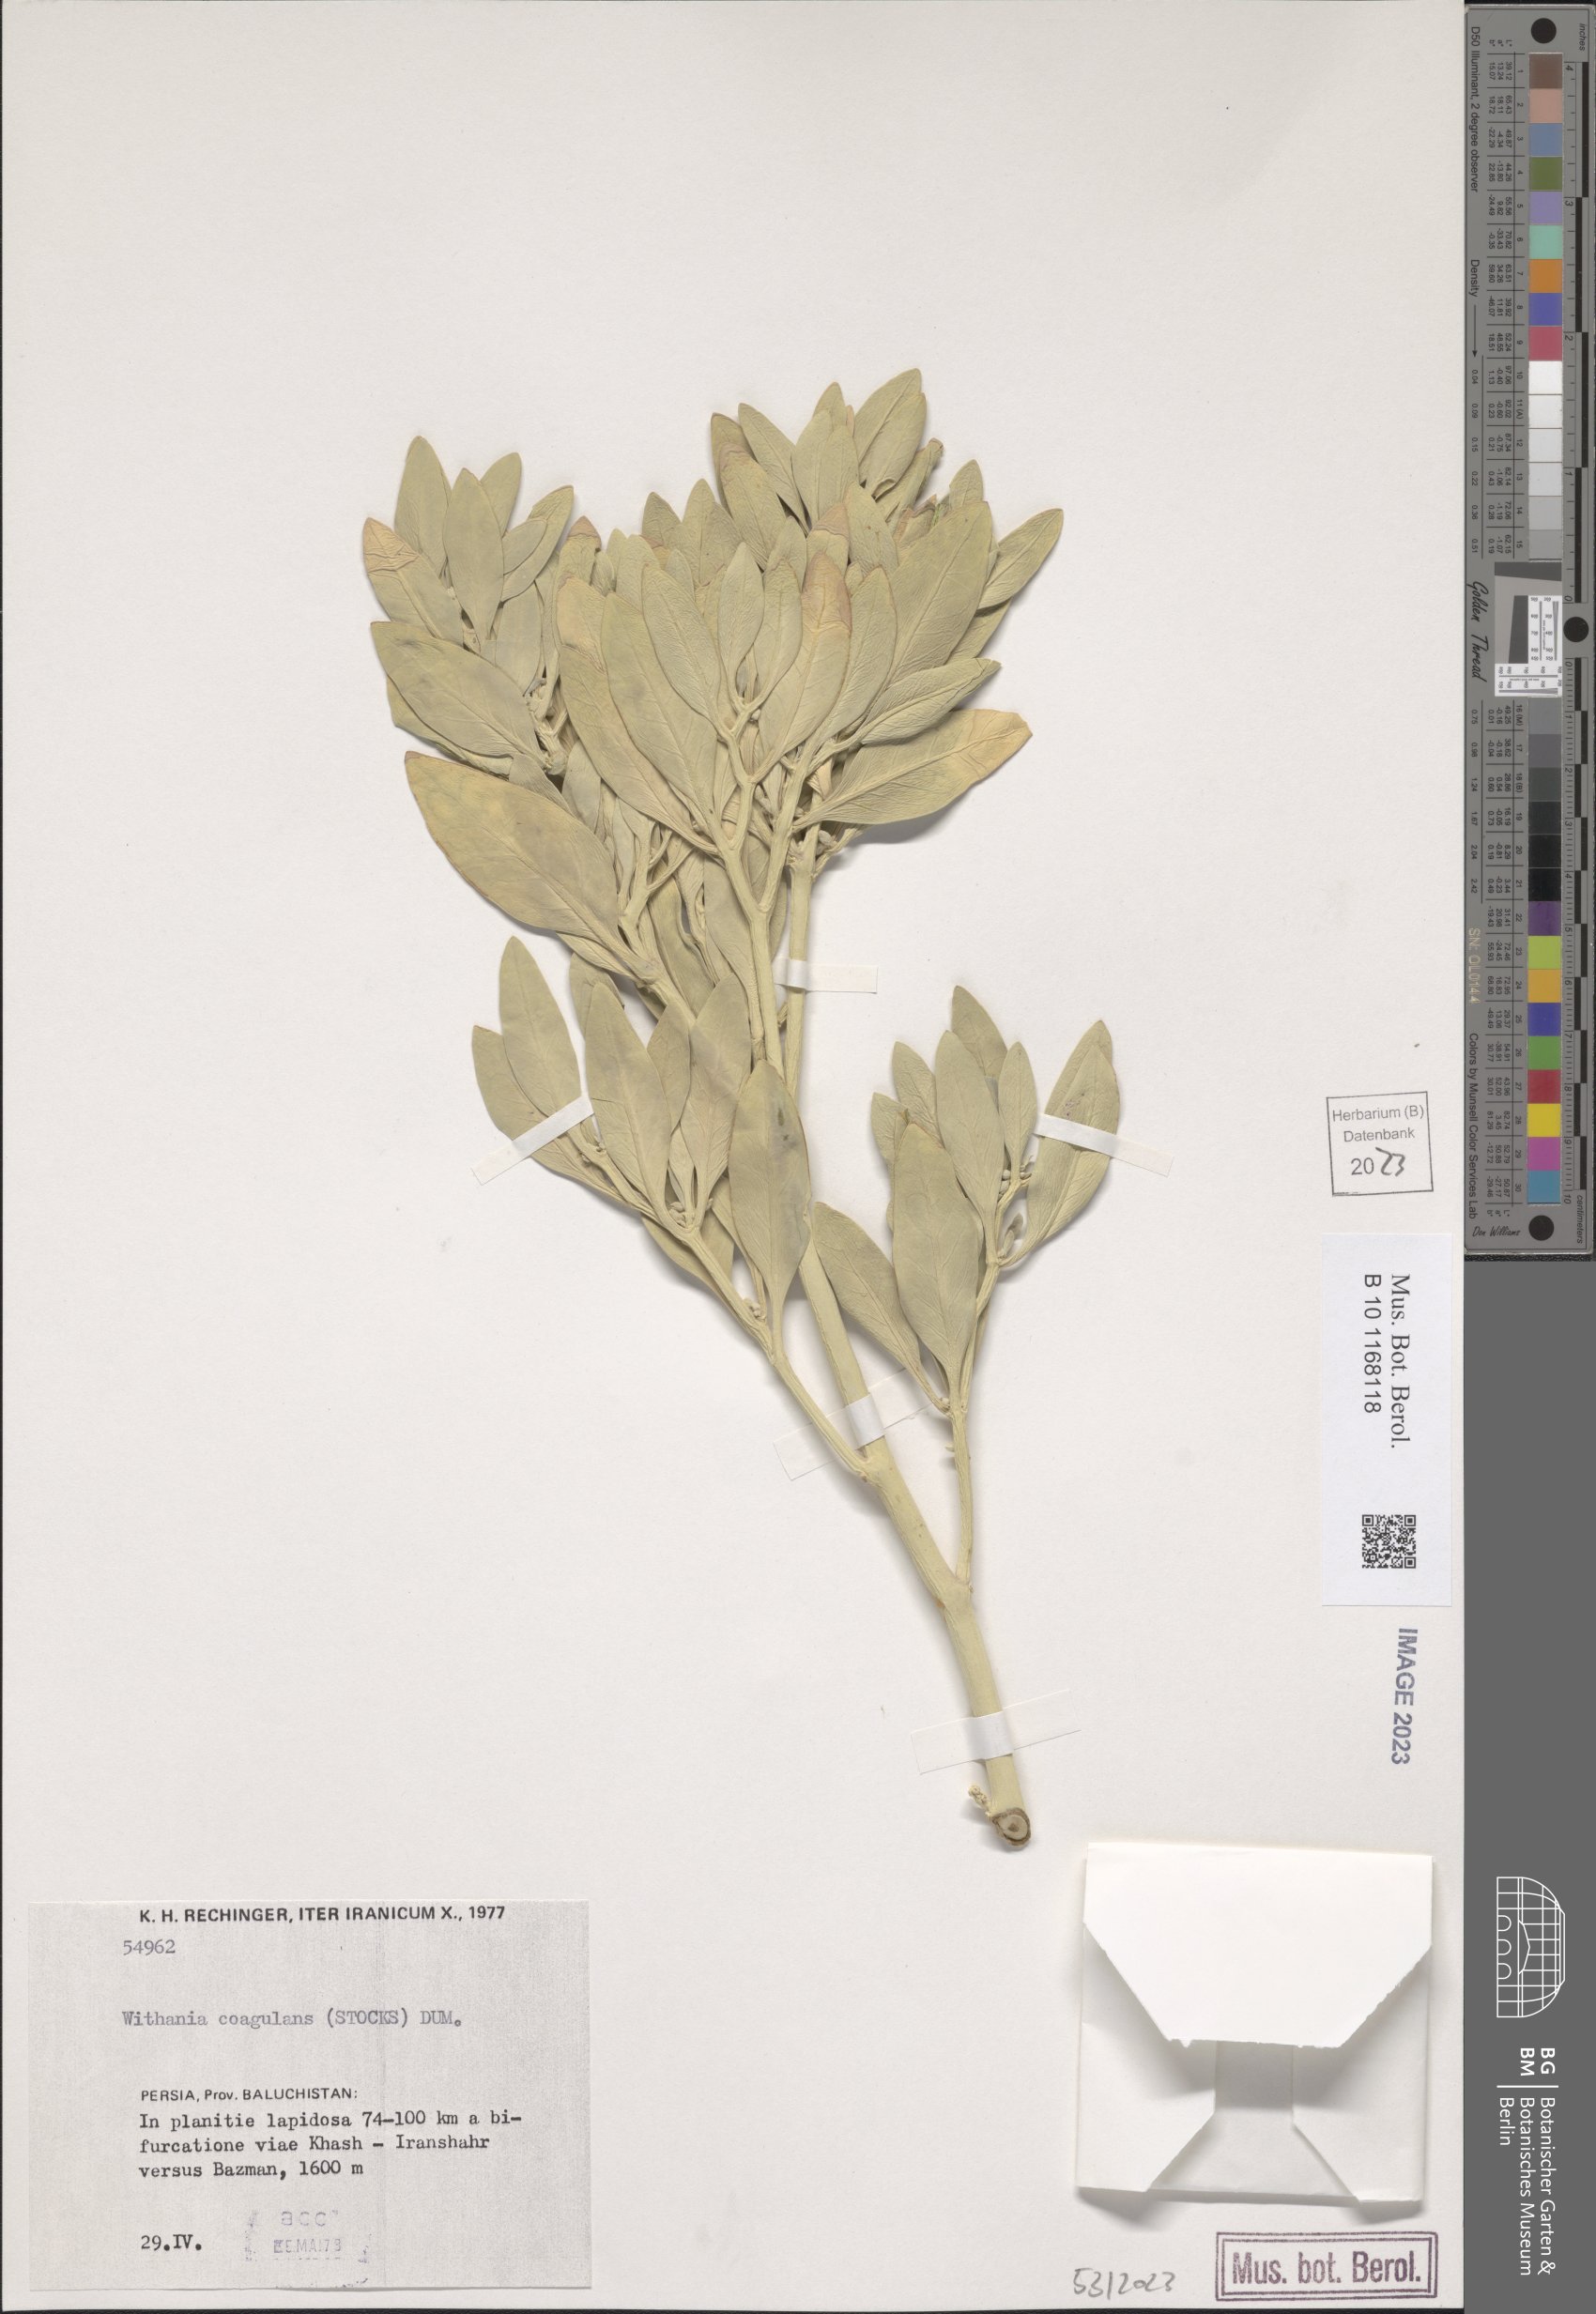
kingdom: Plantae
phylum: Tracheophyta
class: Magnoliopsida
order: Solanales
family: Solanaceae
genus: Withania
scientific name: Withania coagulans
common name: Vegetable rennet
